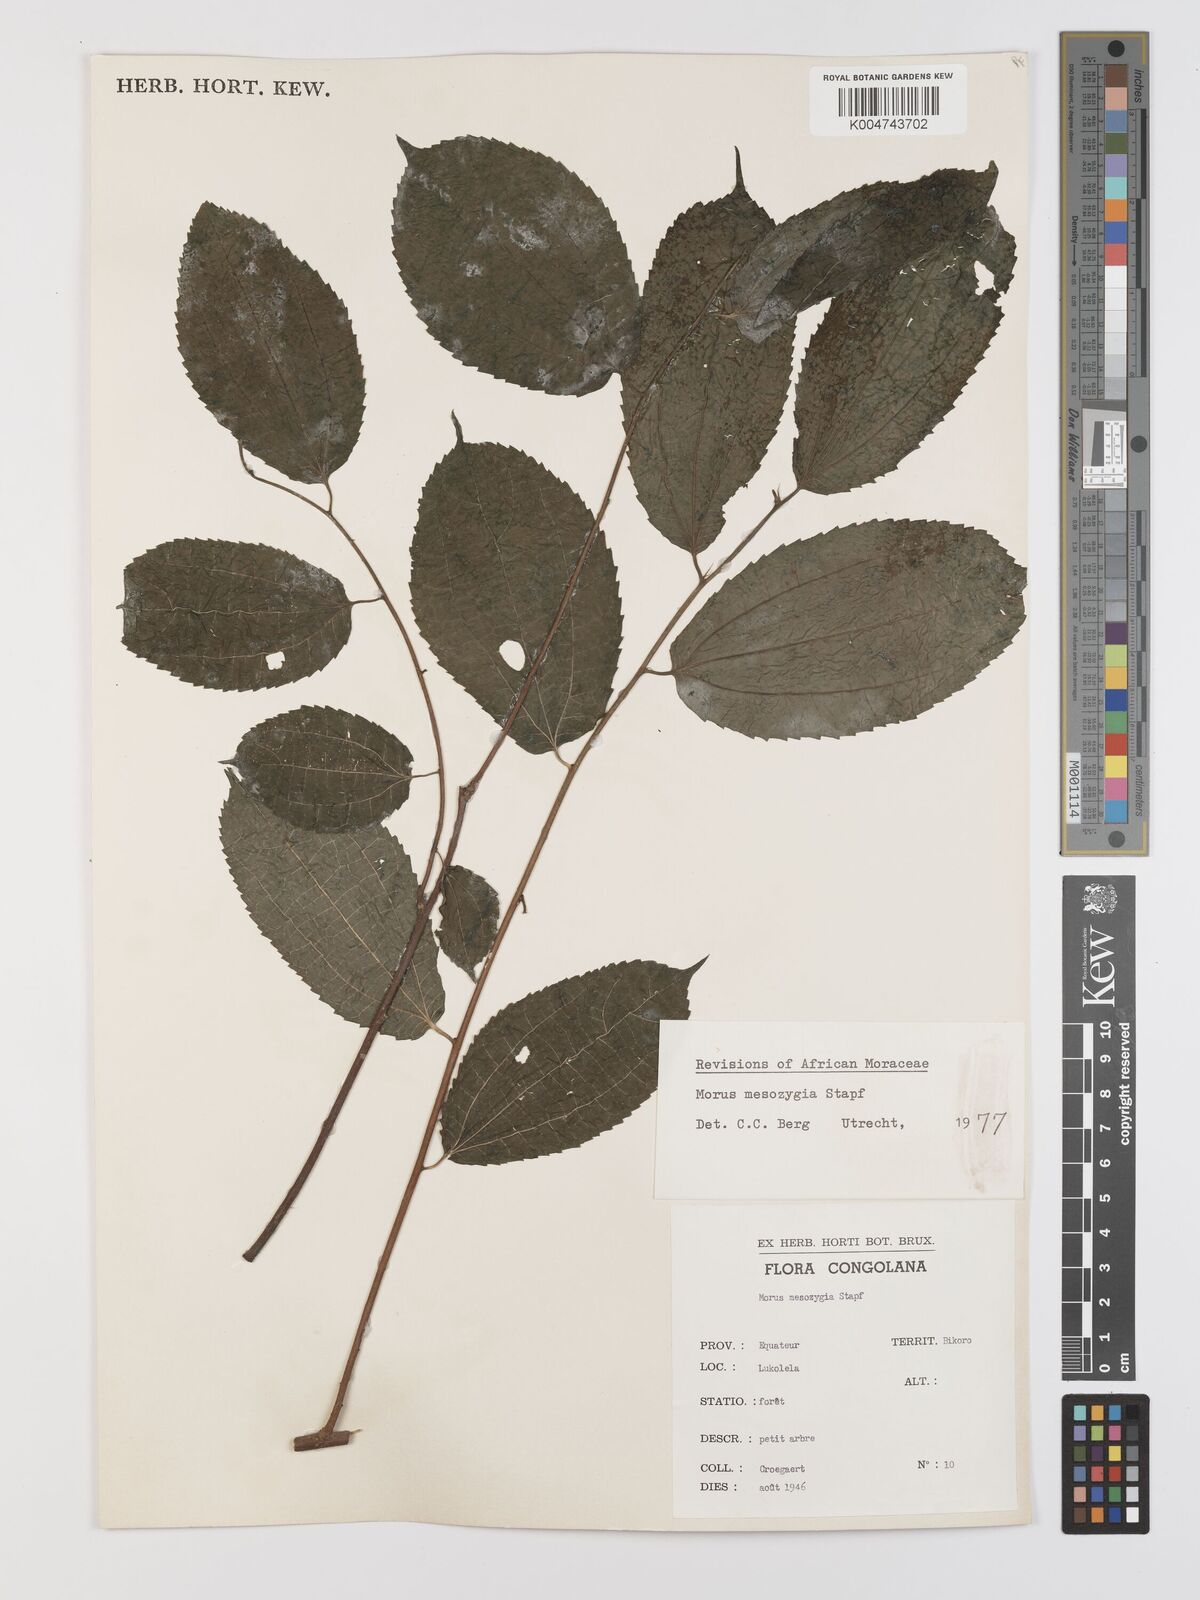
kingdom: Plantae
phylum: Tracheophyta
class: Magnoliopsida
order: Rosales
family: Moraceae
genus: Afromorus
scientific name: Afromorus mesozygia
